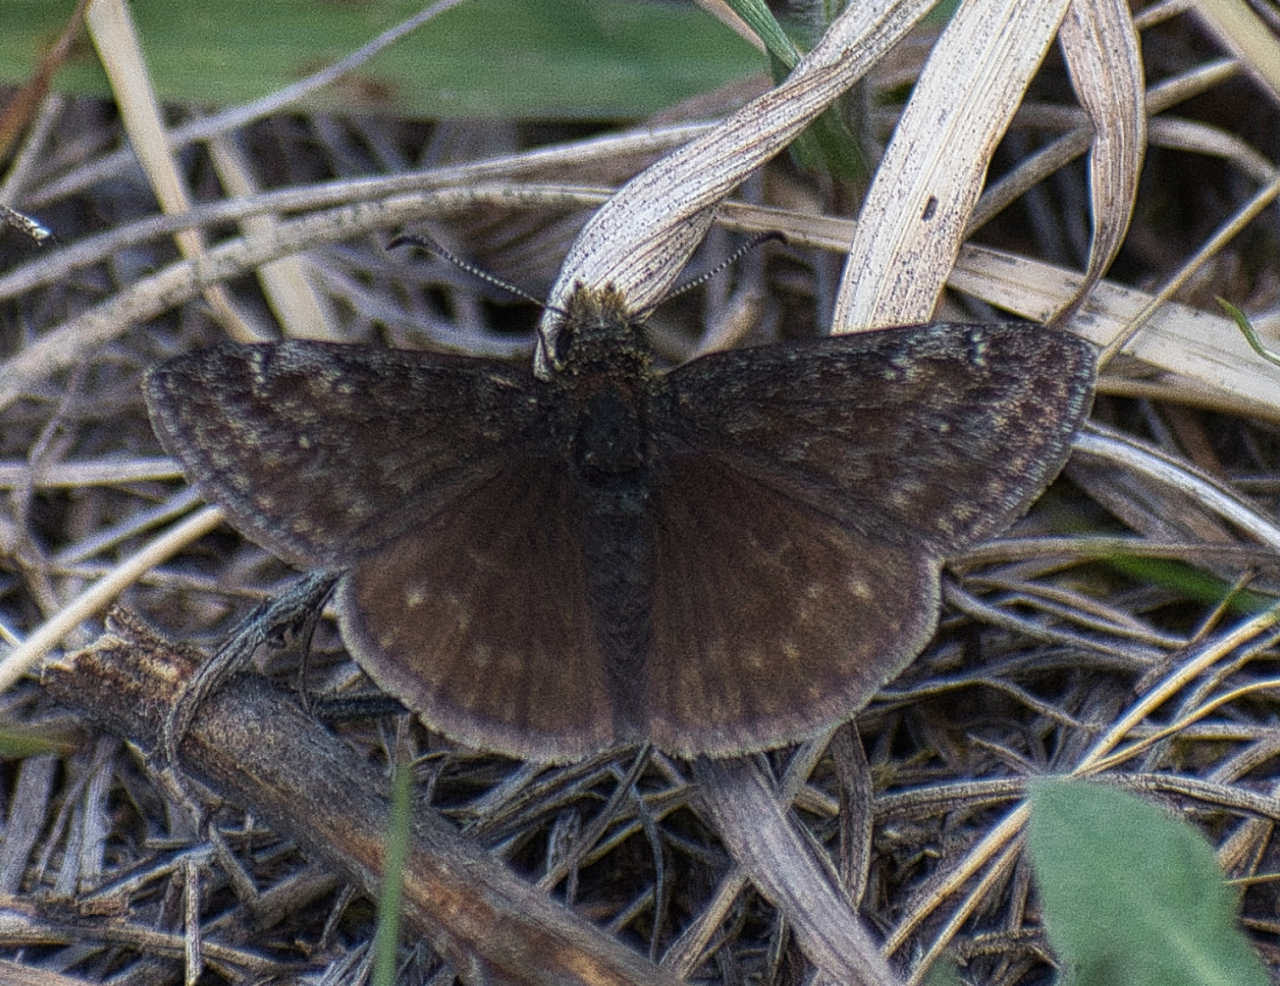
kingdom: Animalia
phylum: Arthropoda
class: Insecta
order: Lepidoptera
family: Hesperiidae
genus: Gesta
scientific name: Gesta
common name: Persius Duskywing
